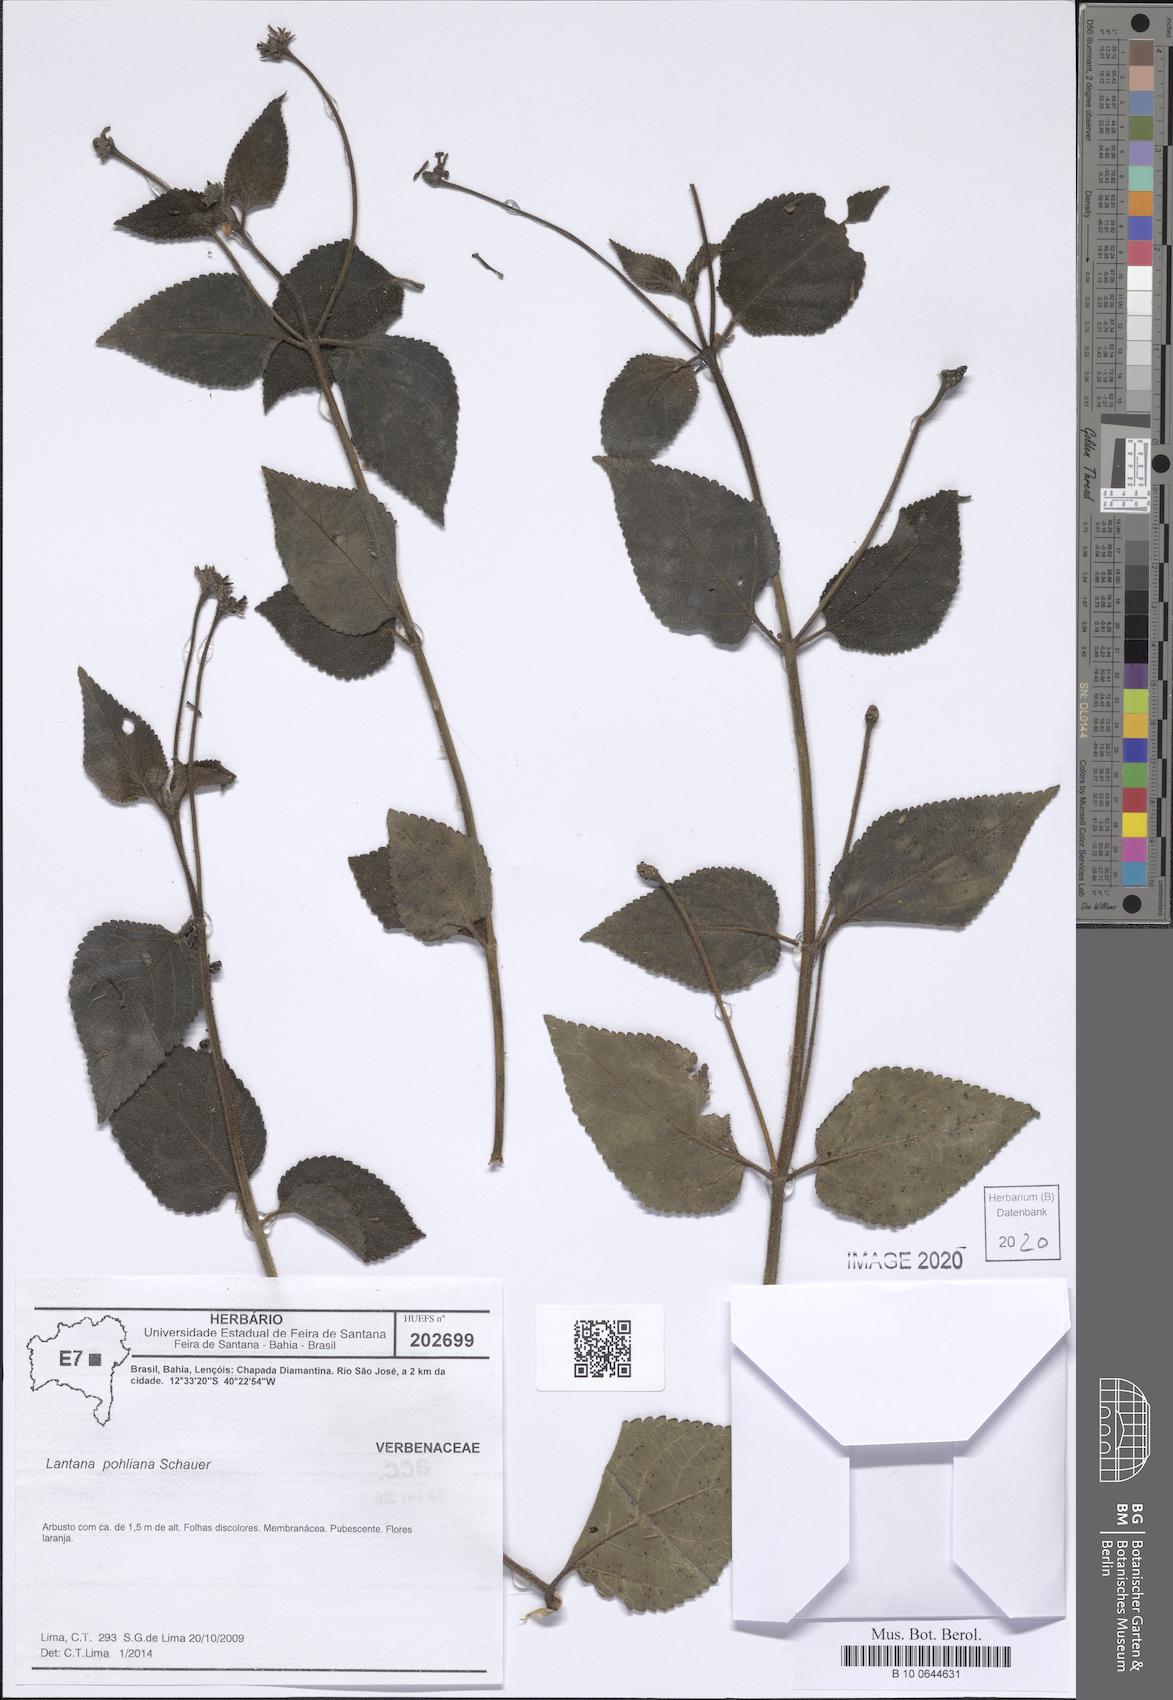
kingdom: Plantae
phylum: Tracheophyta
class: Magnoliopsida
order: Lamiales
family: Verbenaceae
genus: Lantana
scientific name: Lantana pohliana
